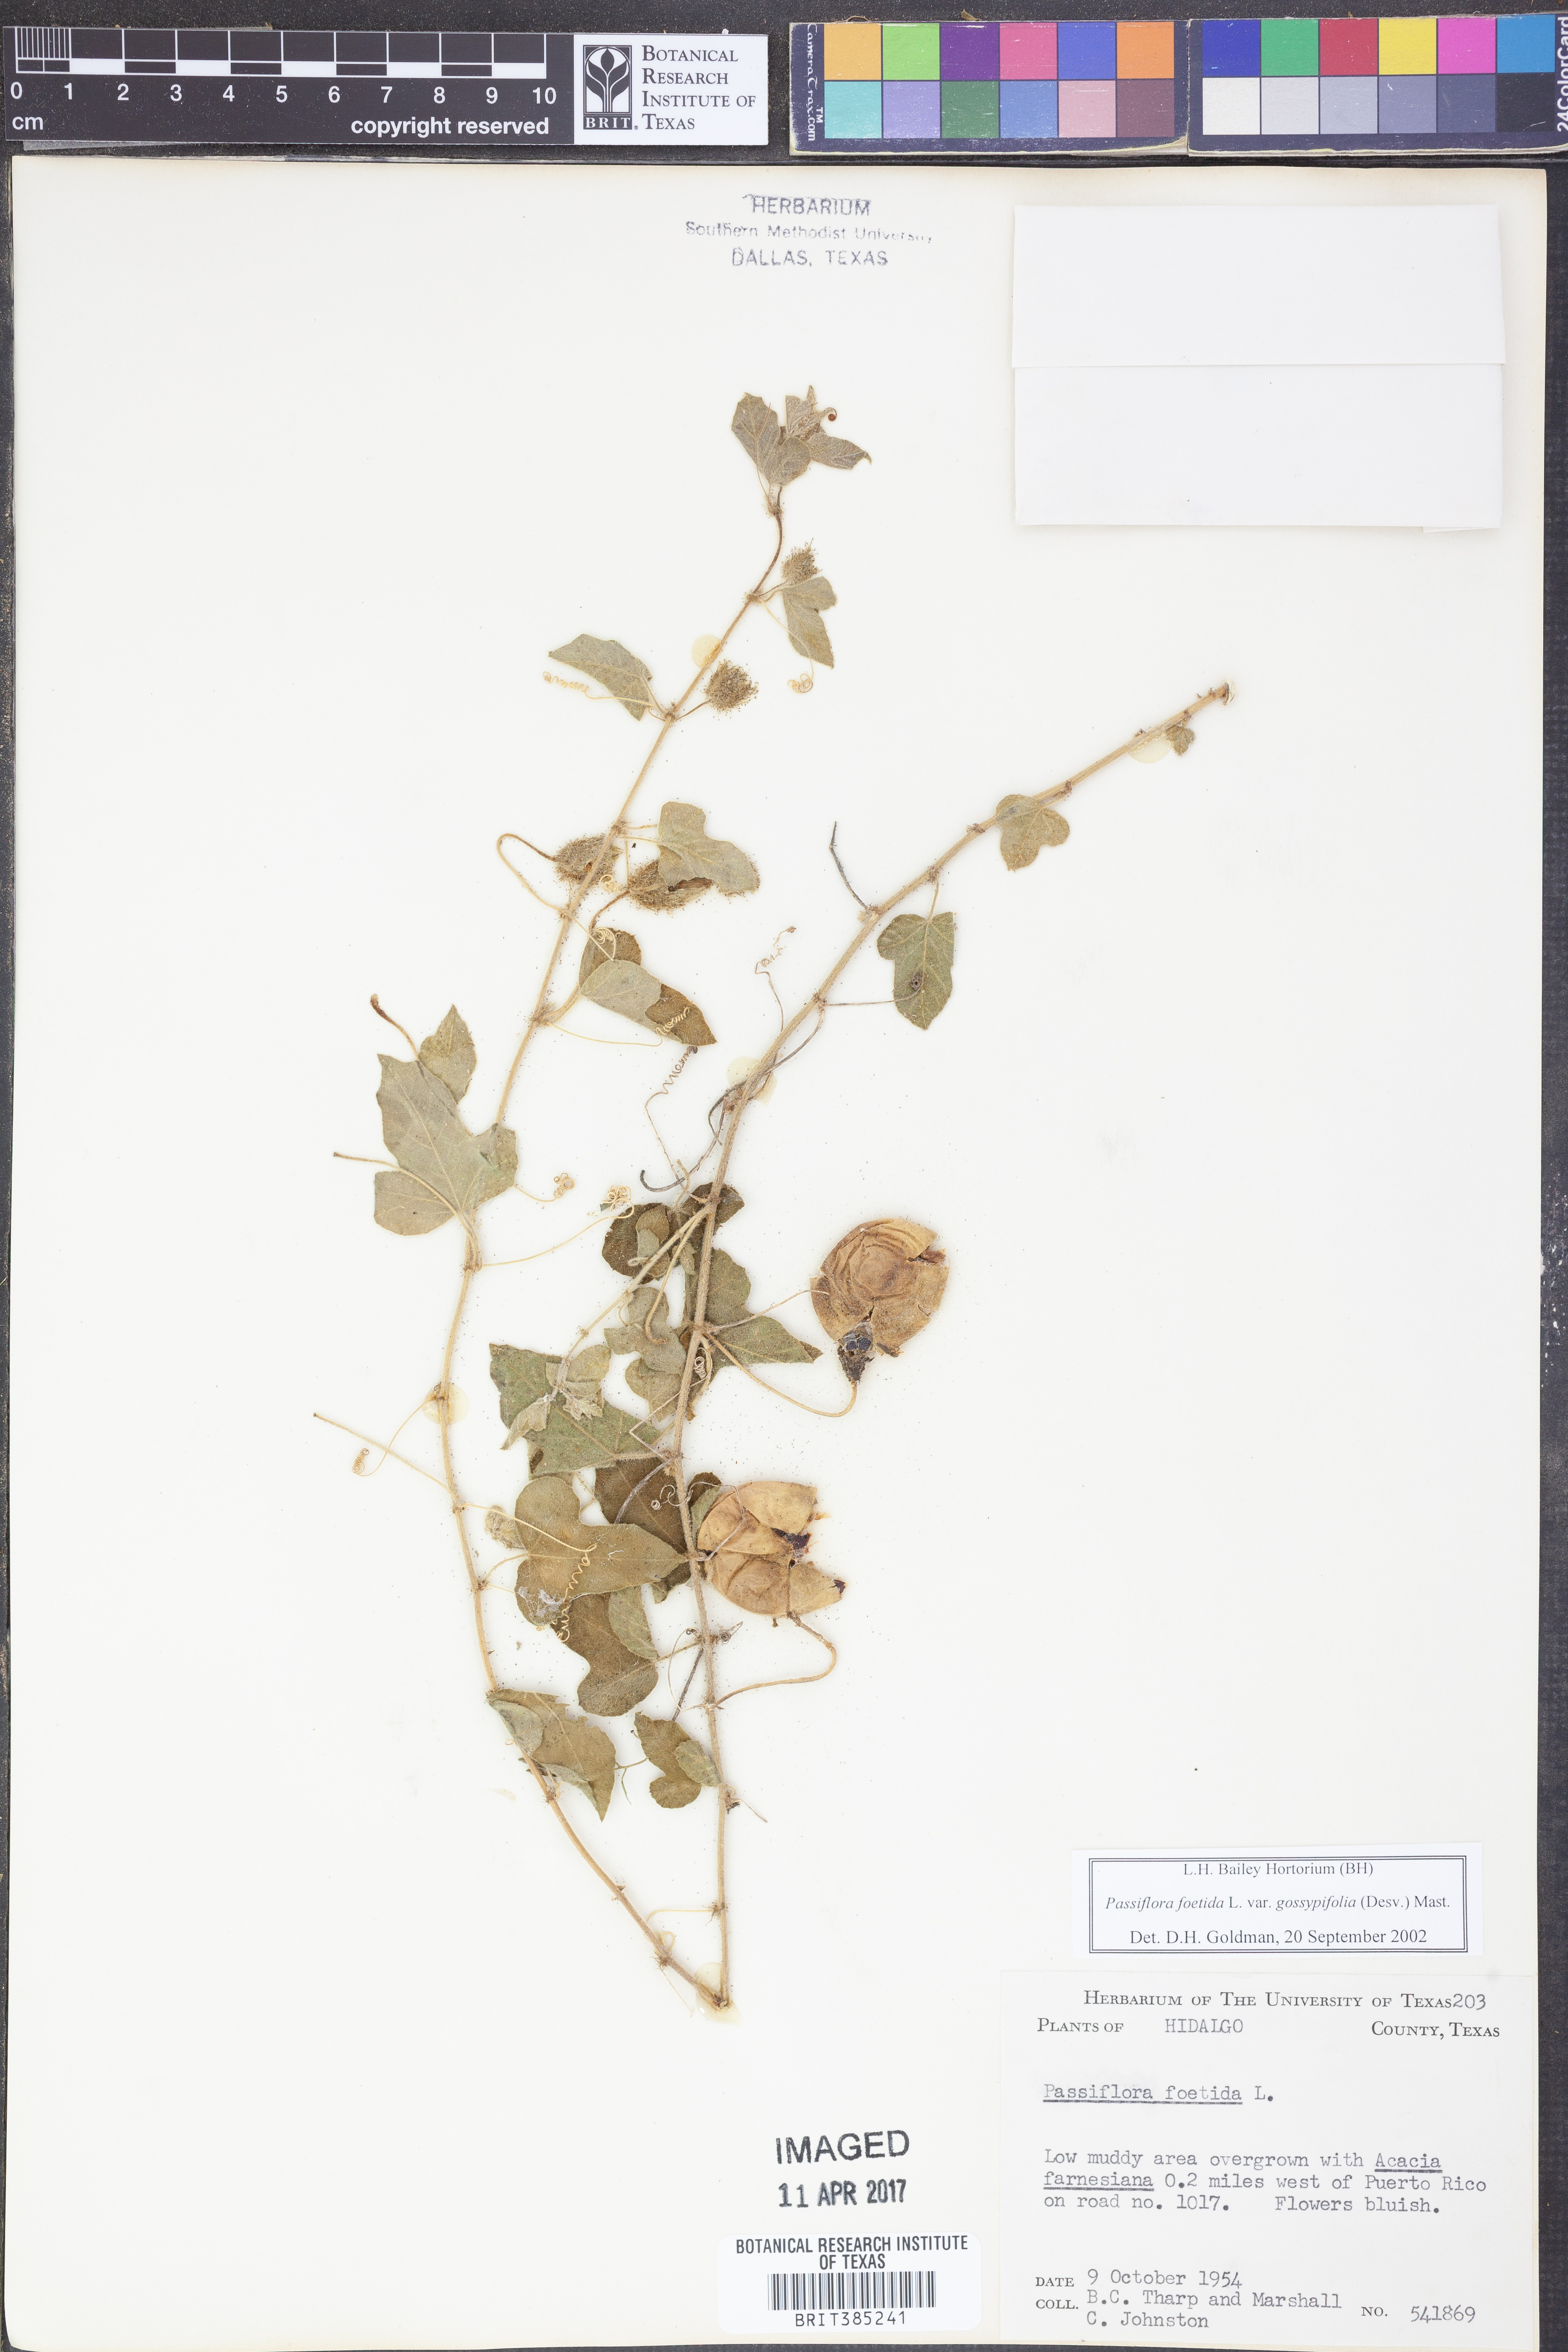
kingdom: Plantae
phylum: Tracheophyta
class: Magnoliopsida
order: Malpighiales
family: Passifloraceae
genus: Passiflora
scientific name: Passiflora foetida
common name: Fetid passionflower
